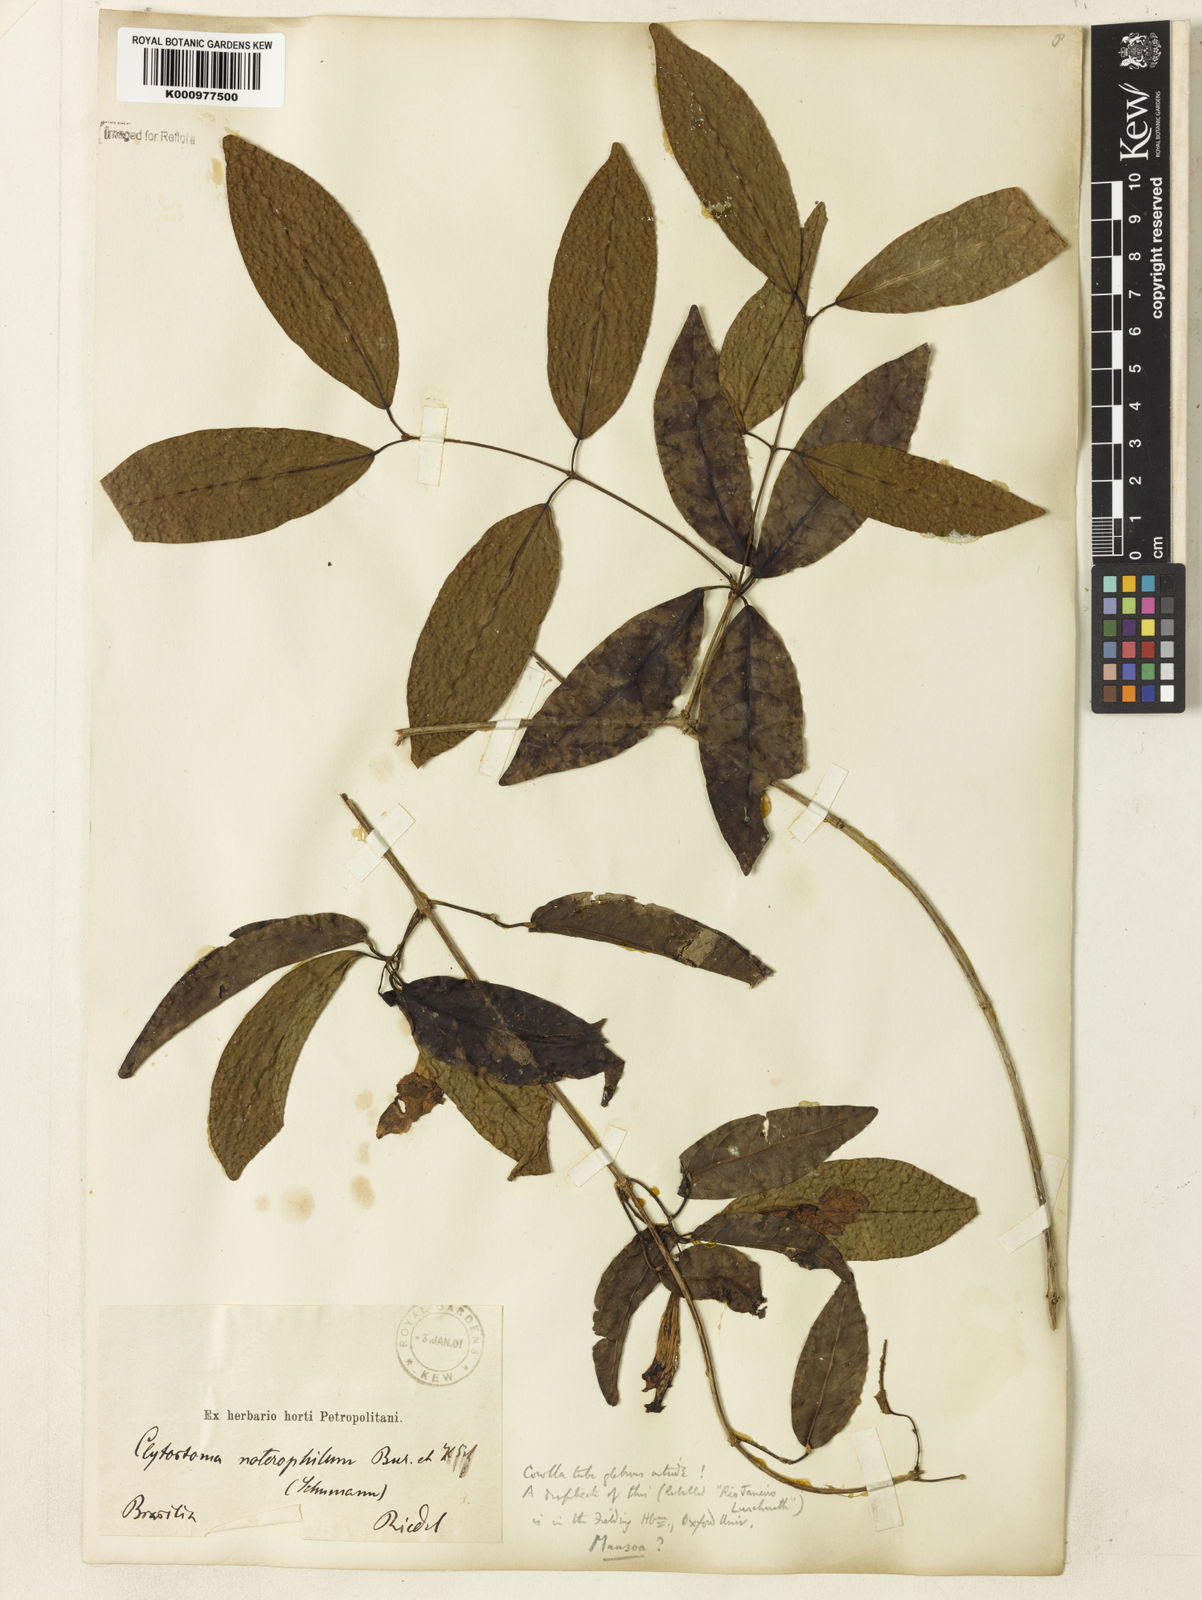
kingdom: Plantae
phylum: Tracheophyta
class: Magnoliopsida
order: Lamiales
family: Bignoniaceae
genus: Bignonia
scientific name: Bignonia binata
